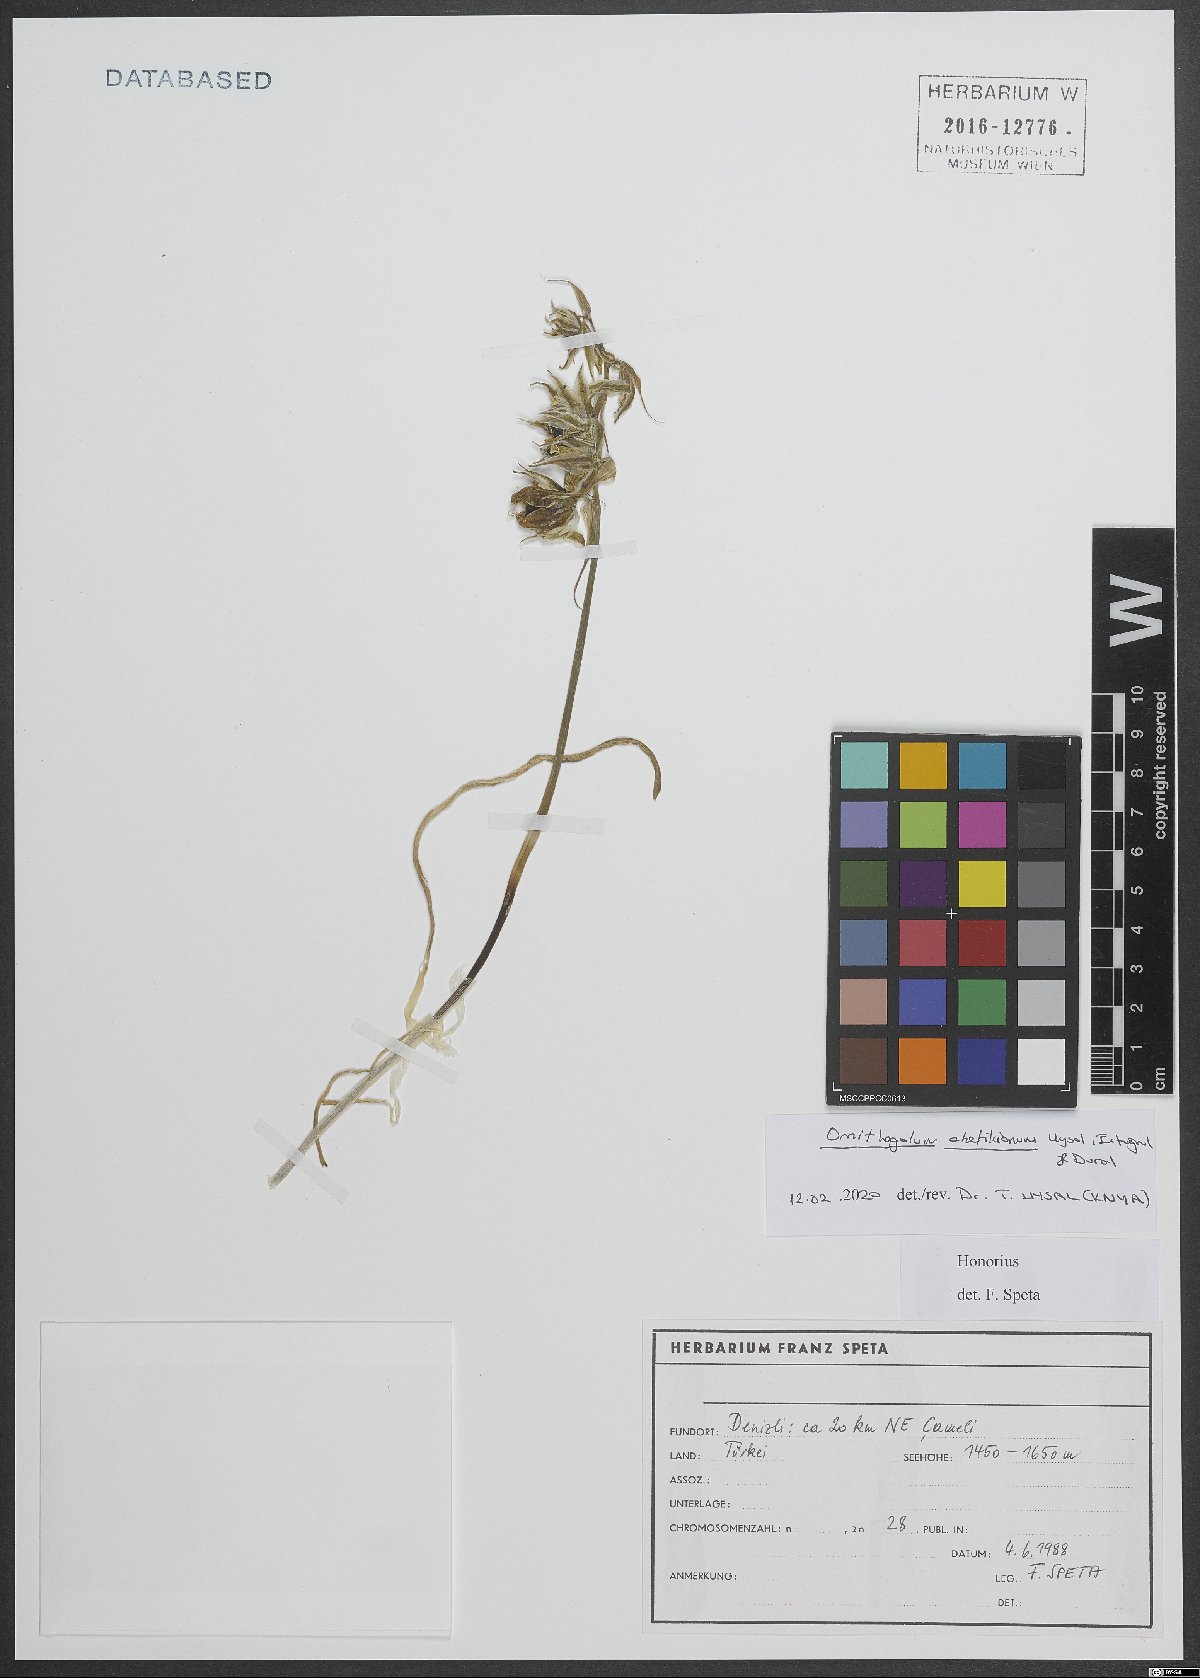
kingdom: Plantae
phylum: Tracheophyta
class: Liliopsida
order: Asparagales
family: Asparagaceae
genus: Ornithogalum
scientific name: Ornithogalum chetikianum
